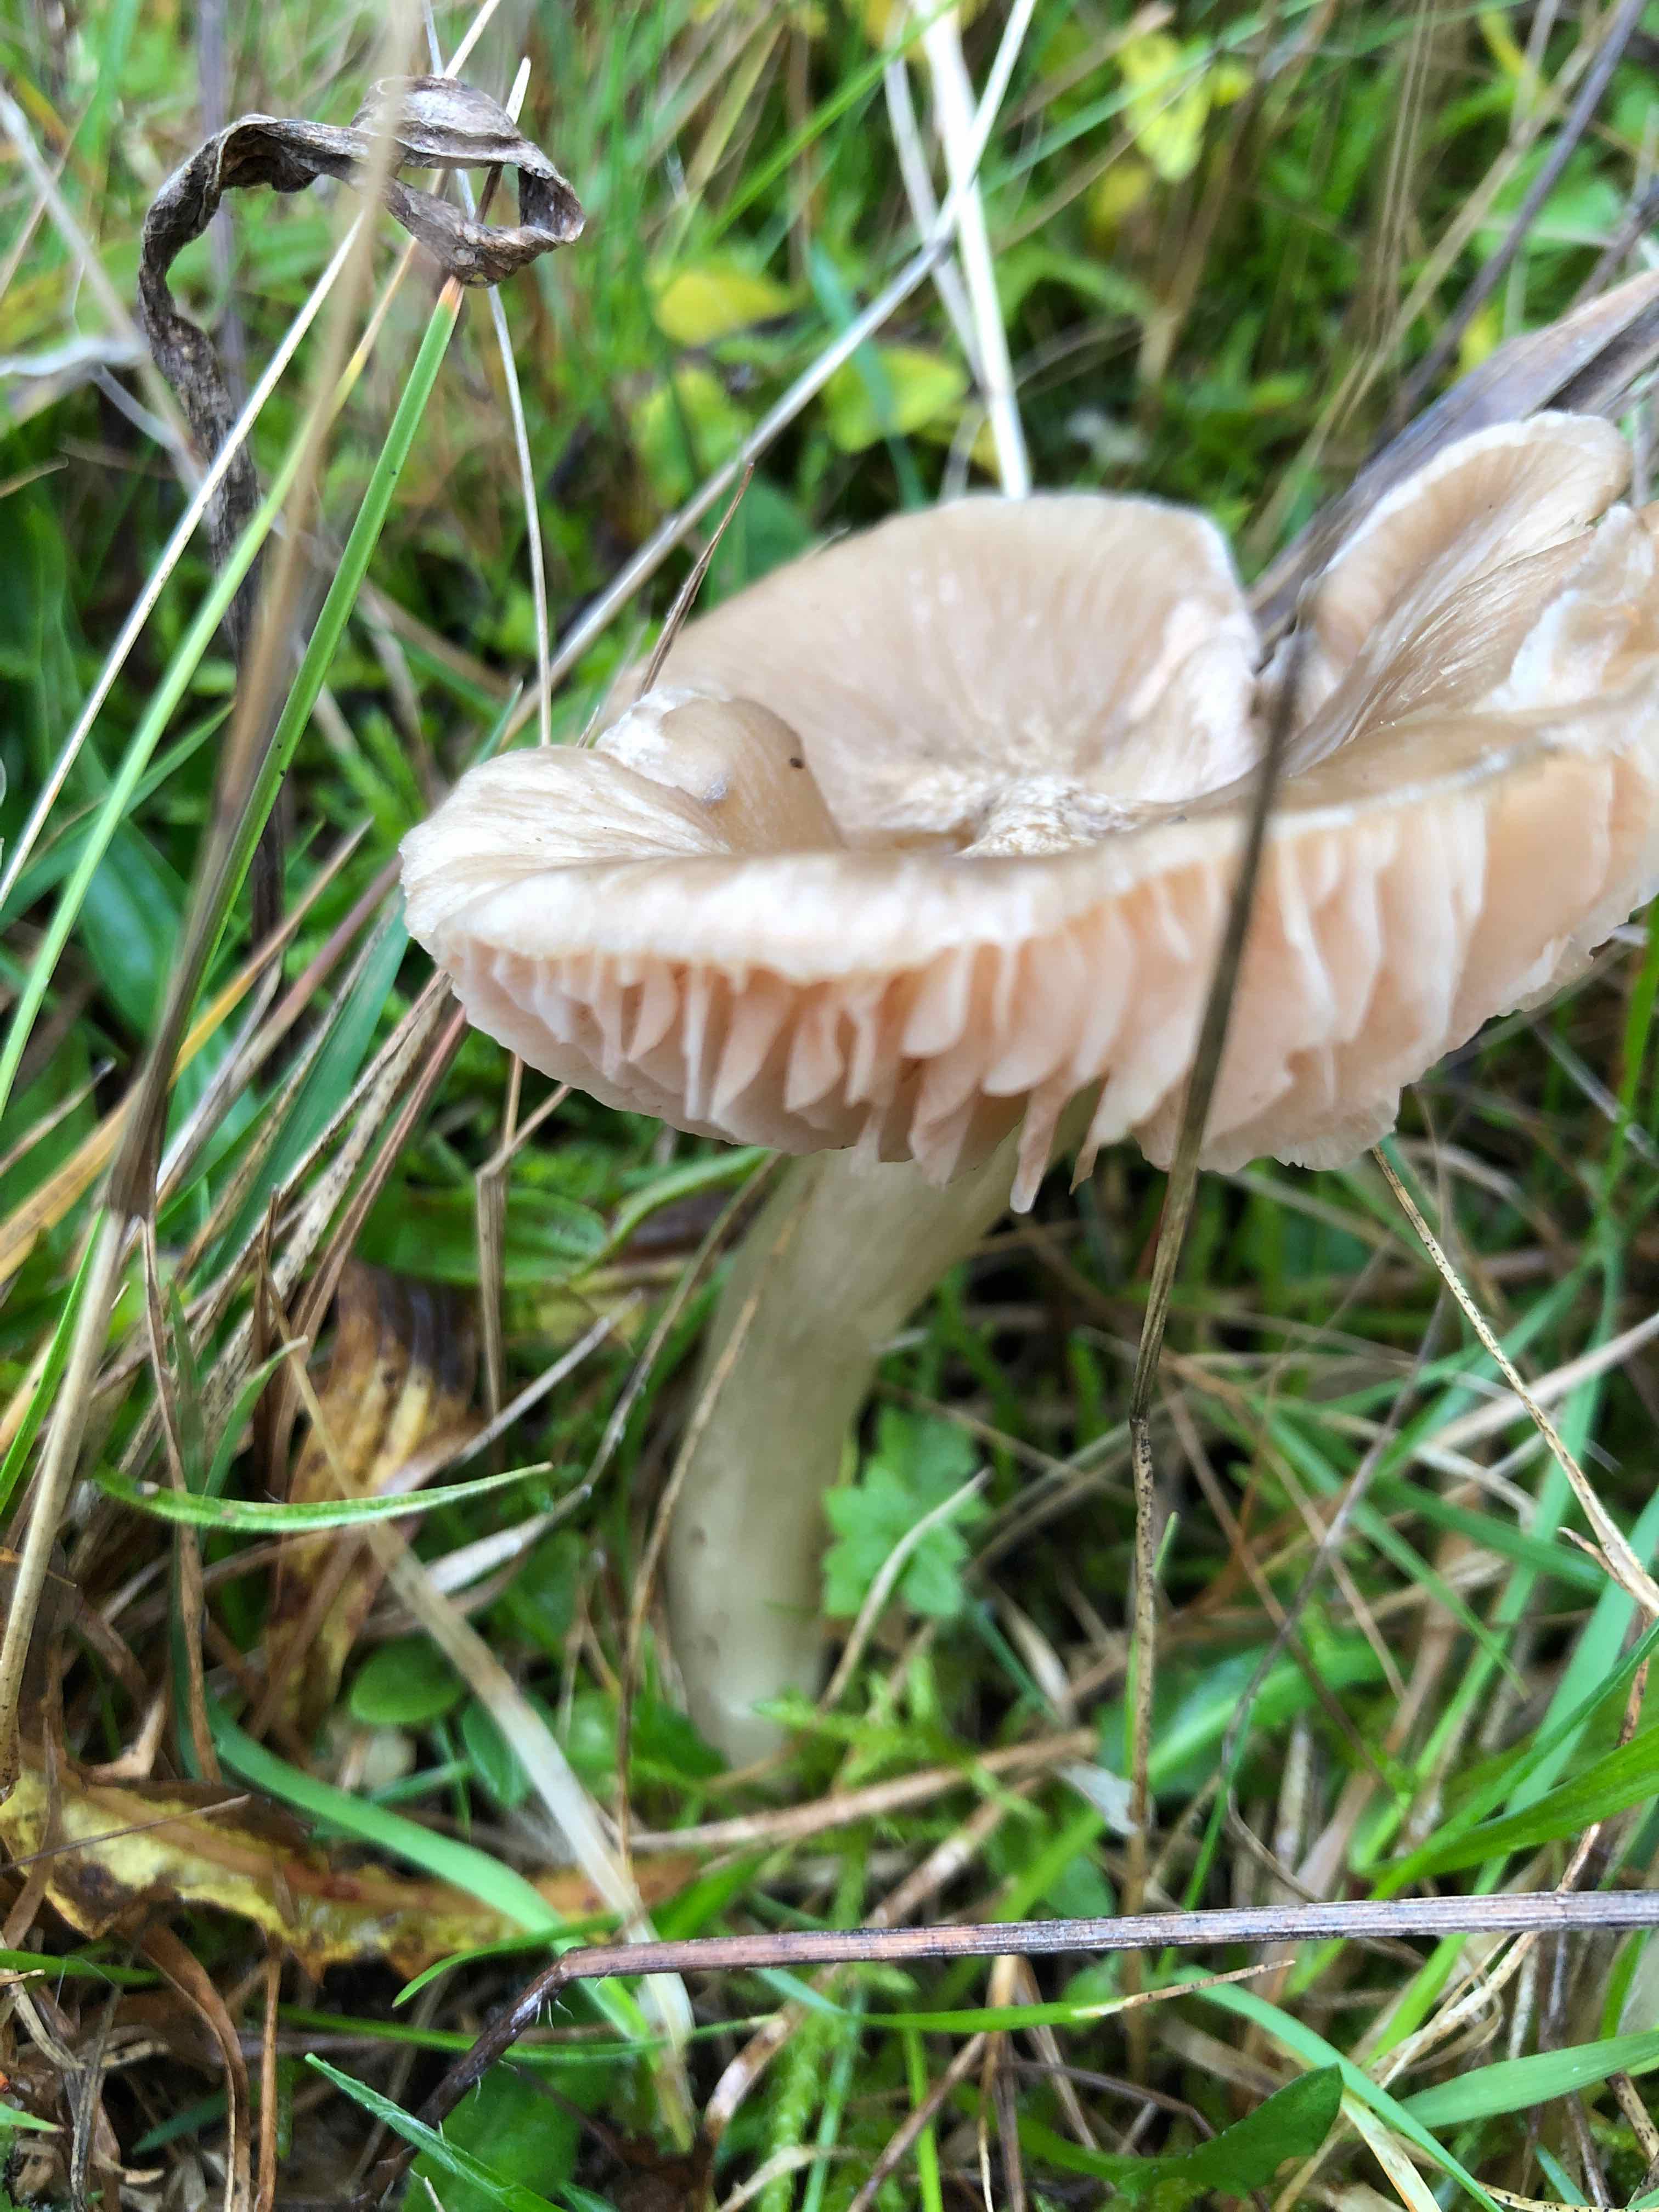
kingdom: Fungi
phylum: Basidiomycota
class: Agaricomycetes
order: Agaricales
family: Entolomataceae
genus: Entoloma
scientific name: Entoloma prunuloides
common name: mel-rødblad
